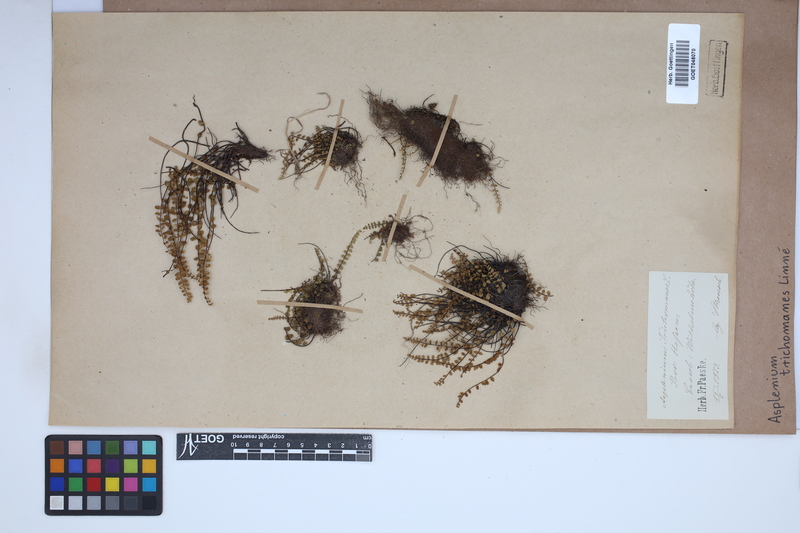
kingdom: Plantae
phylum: Tracheophyta
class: Polypodiopsida
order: Polypodiales
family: Aspleniaceae
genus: Asplenium
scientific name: Asplenium trichomanes
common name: Maidenhair spleenwort
